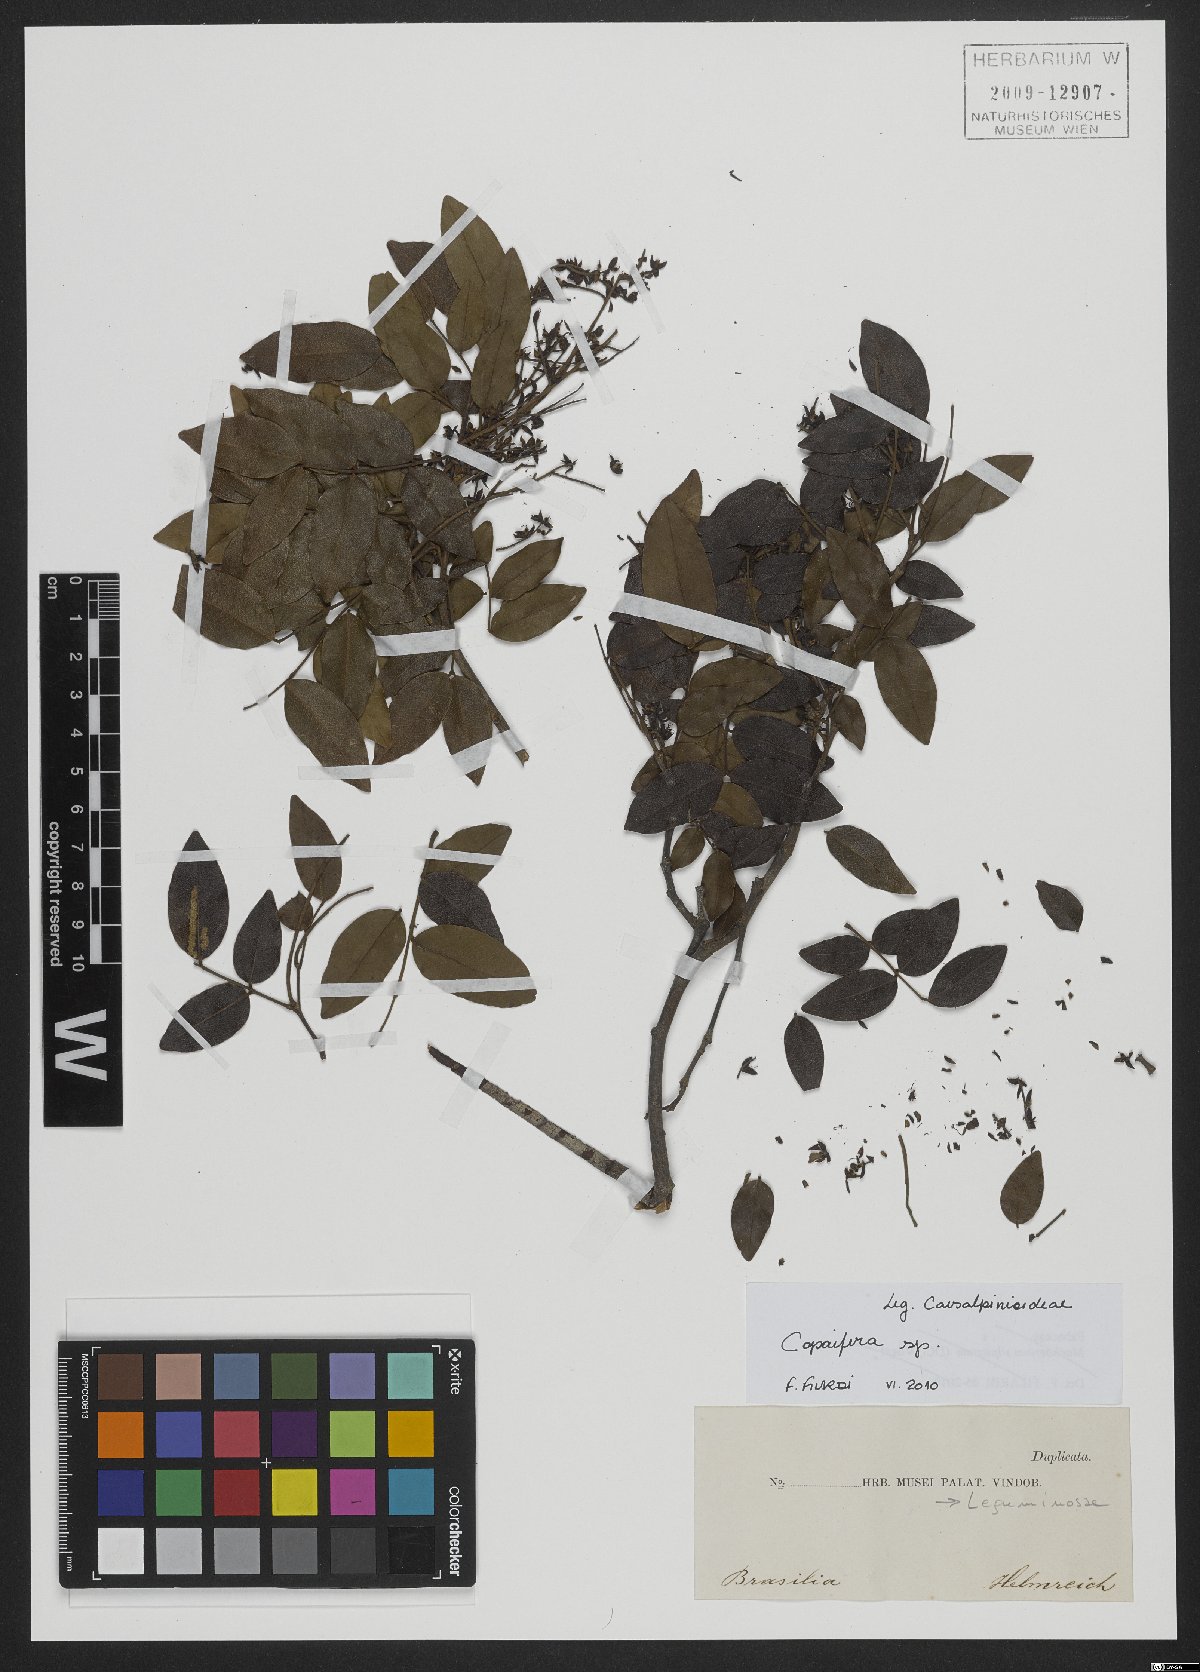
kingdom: Plantae
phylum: Tracheophyta
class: Magnoliopsida
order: Fabales
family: Fabaceae
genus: Copaifera
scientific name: Copaifera
